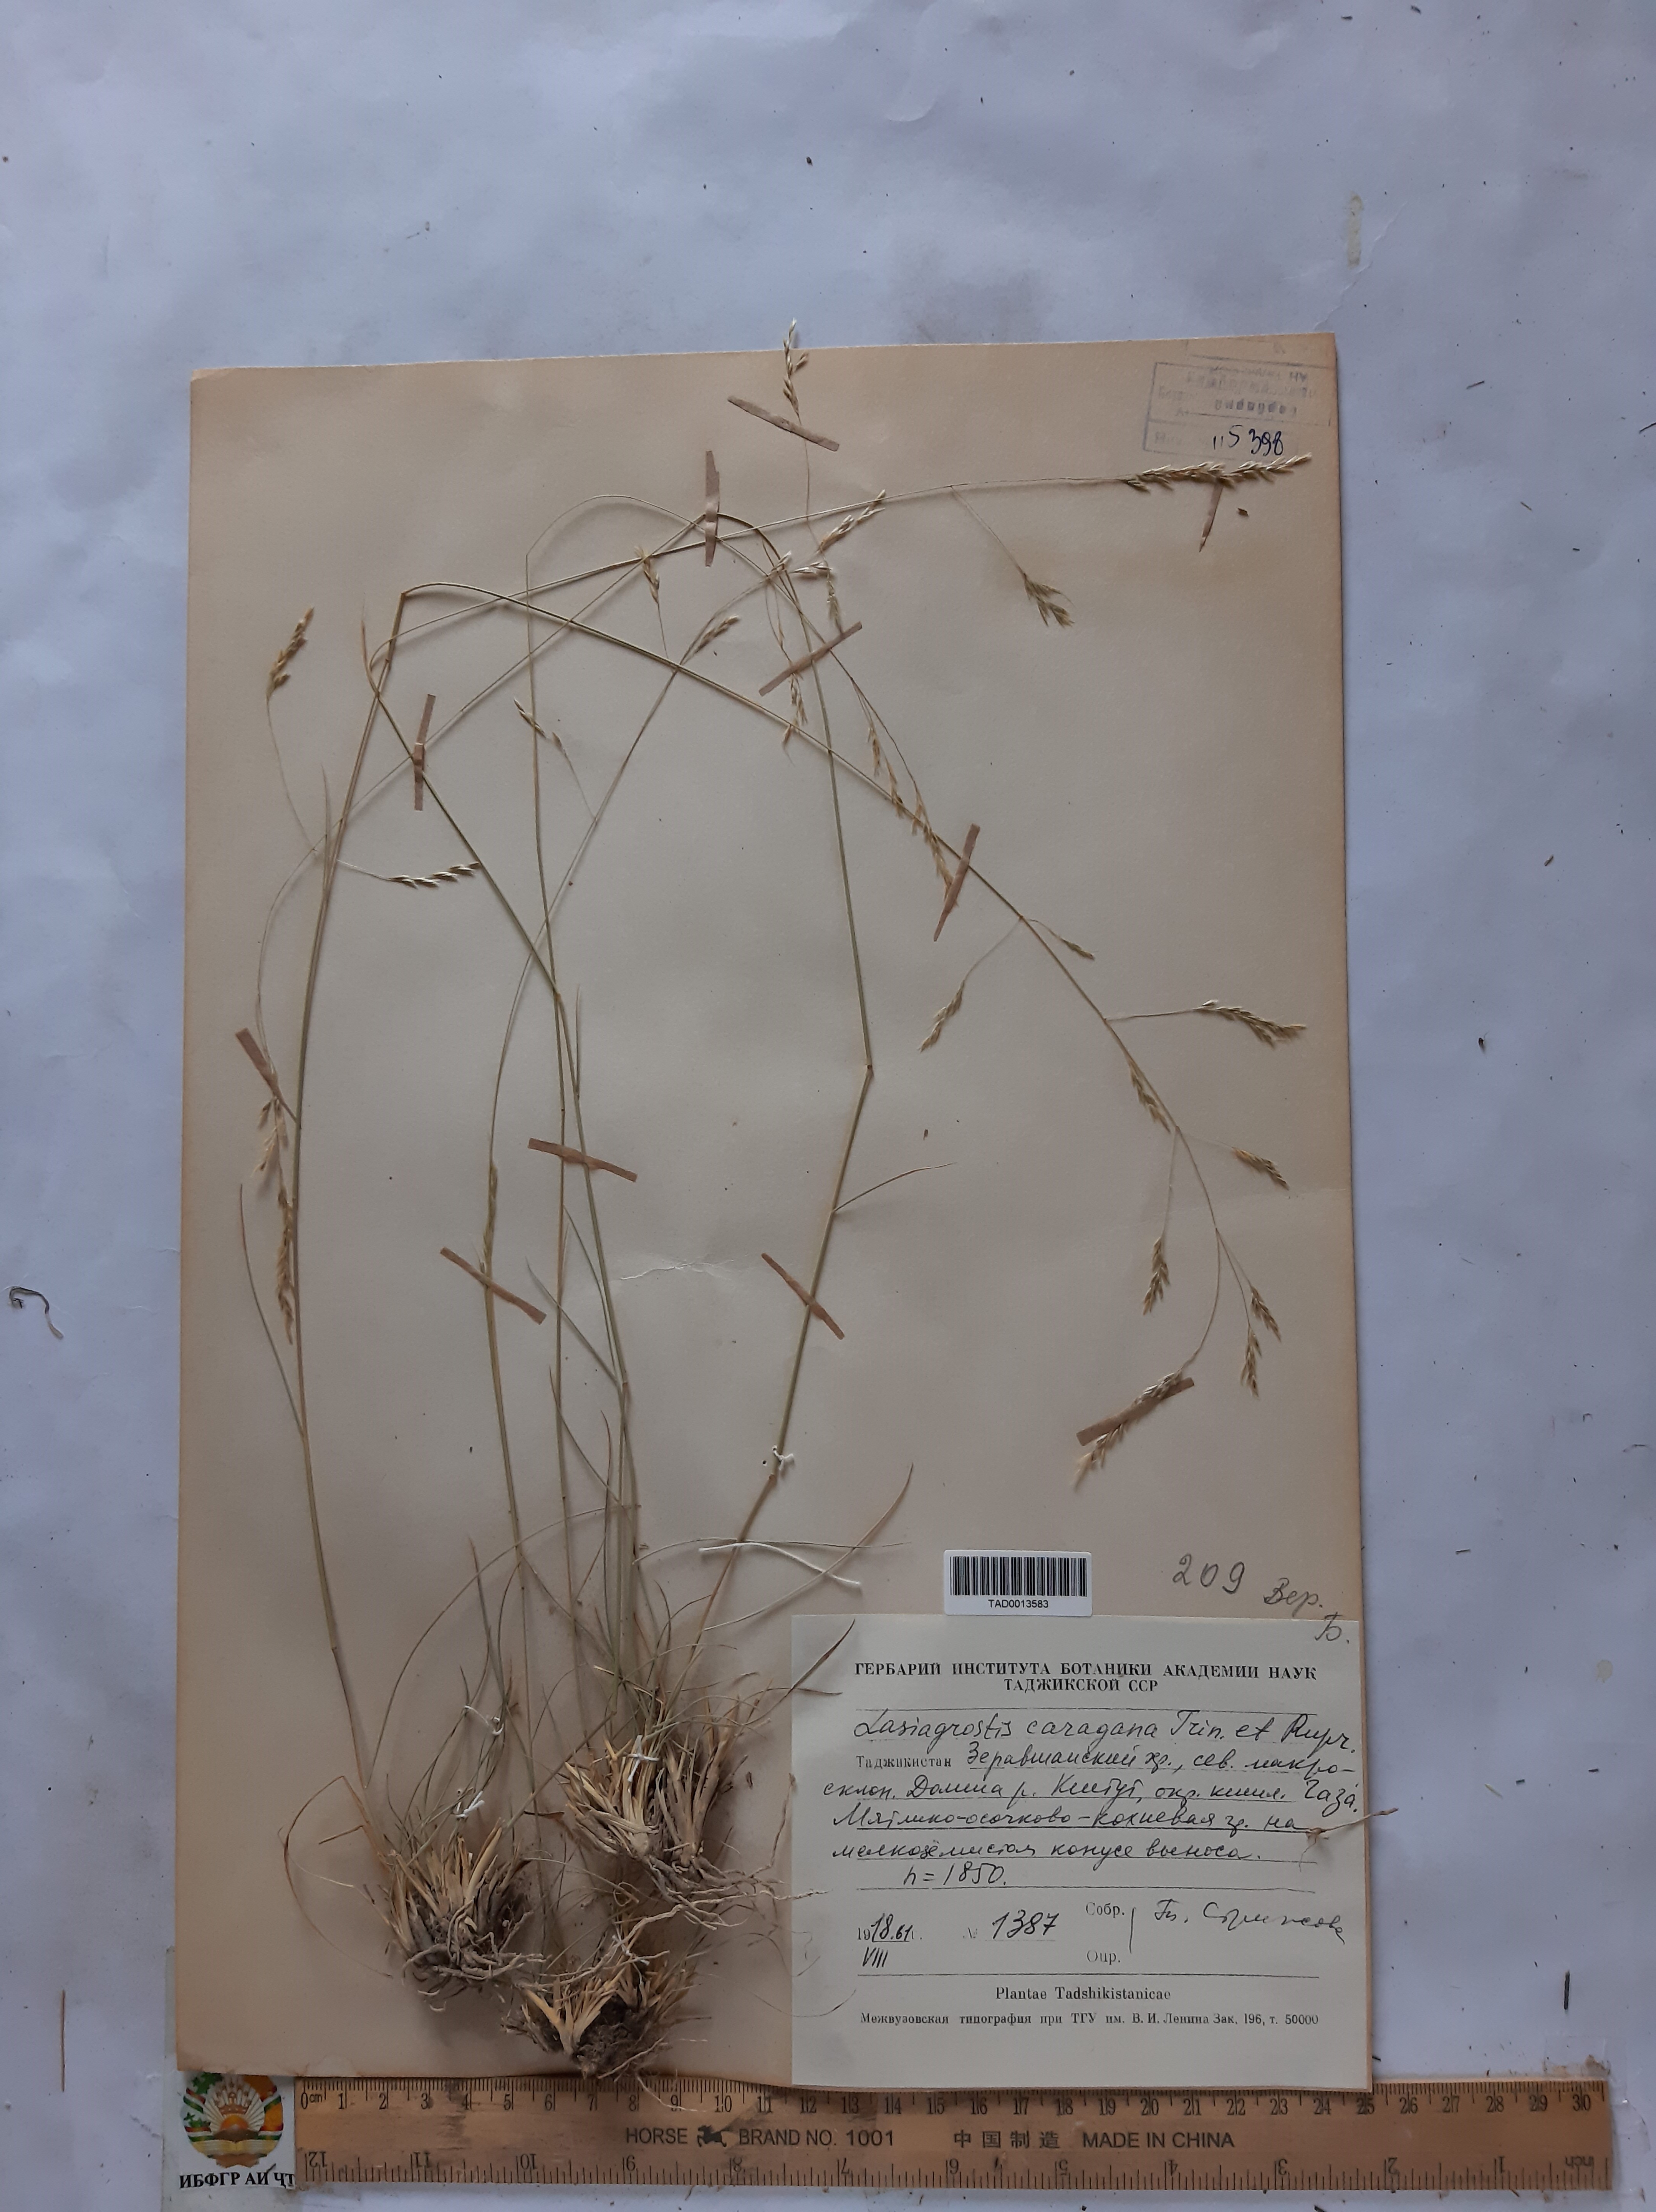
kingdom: Plantae
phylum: Tracheophyta
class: Liliopsida
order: Poales
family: Poaceae
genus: Stipa
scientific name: Stipa conferta
